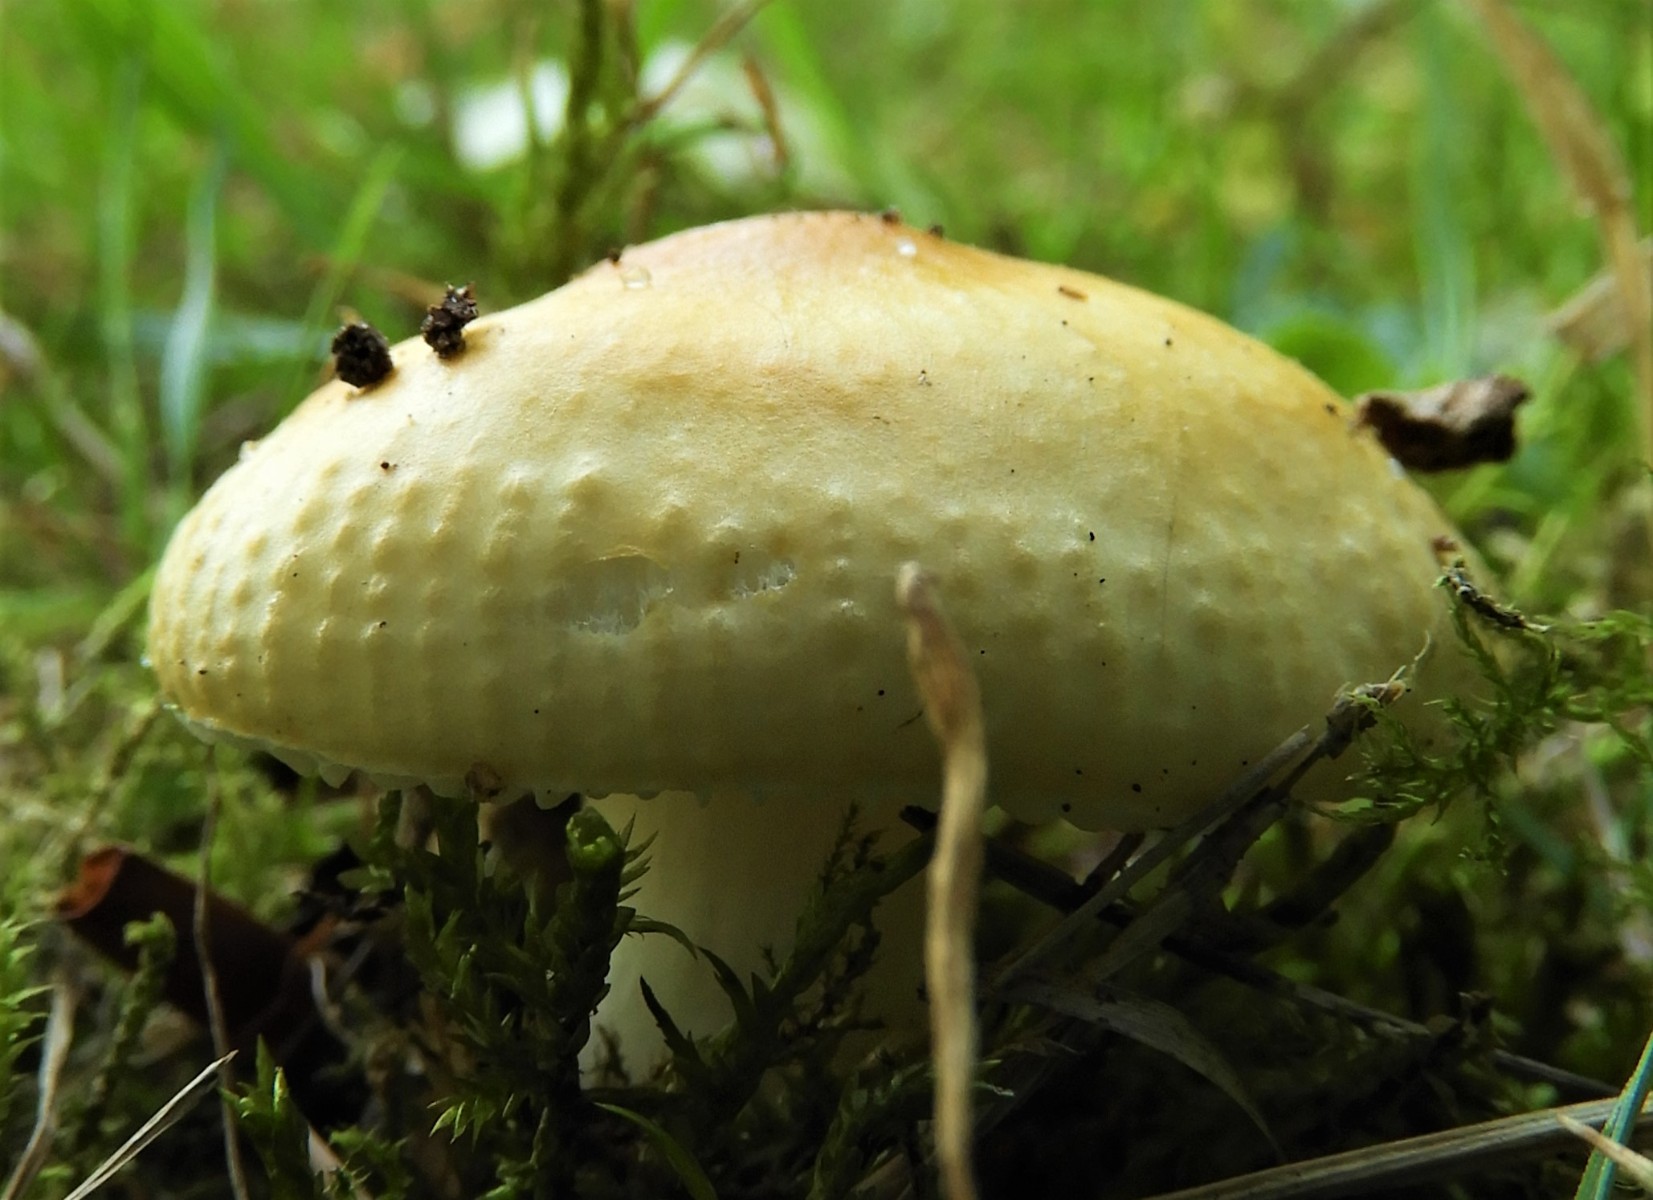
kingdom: Fungi
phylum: Basidiomycota
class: Agaricomycetes
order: Russulales
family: Russulaceae
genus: Russula
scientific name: Russula solaris
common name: sol-skørhat
